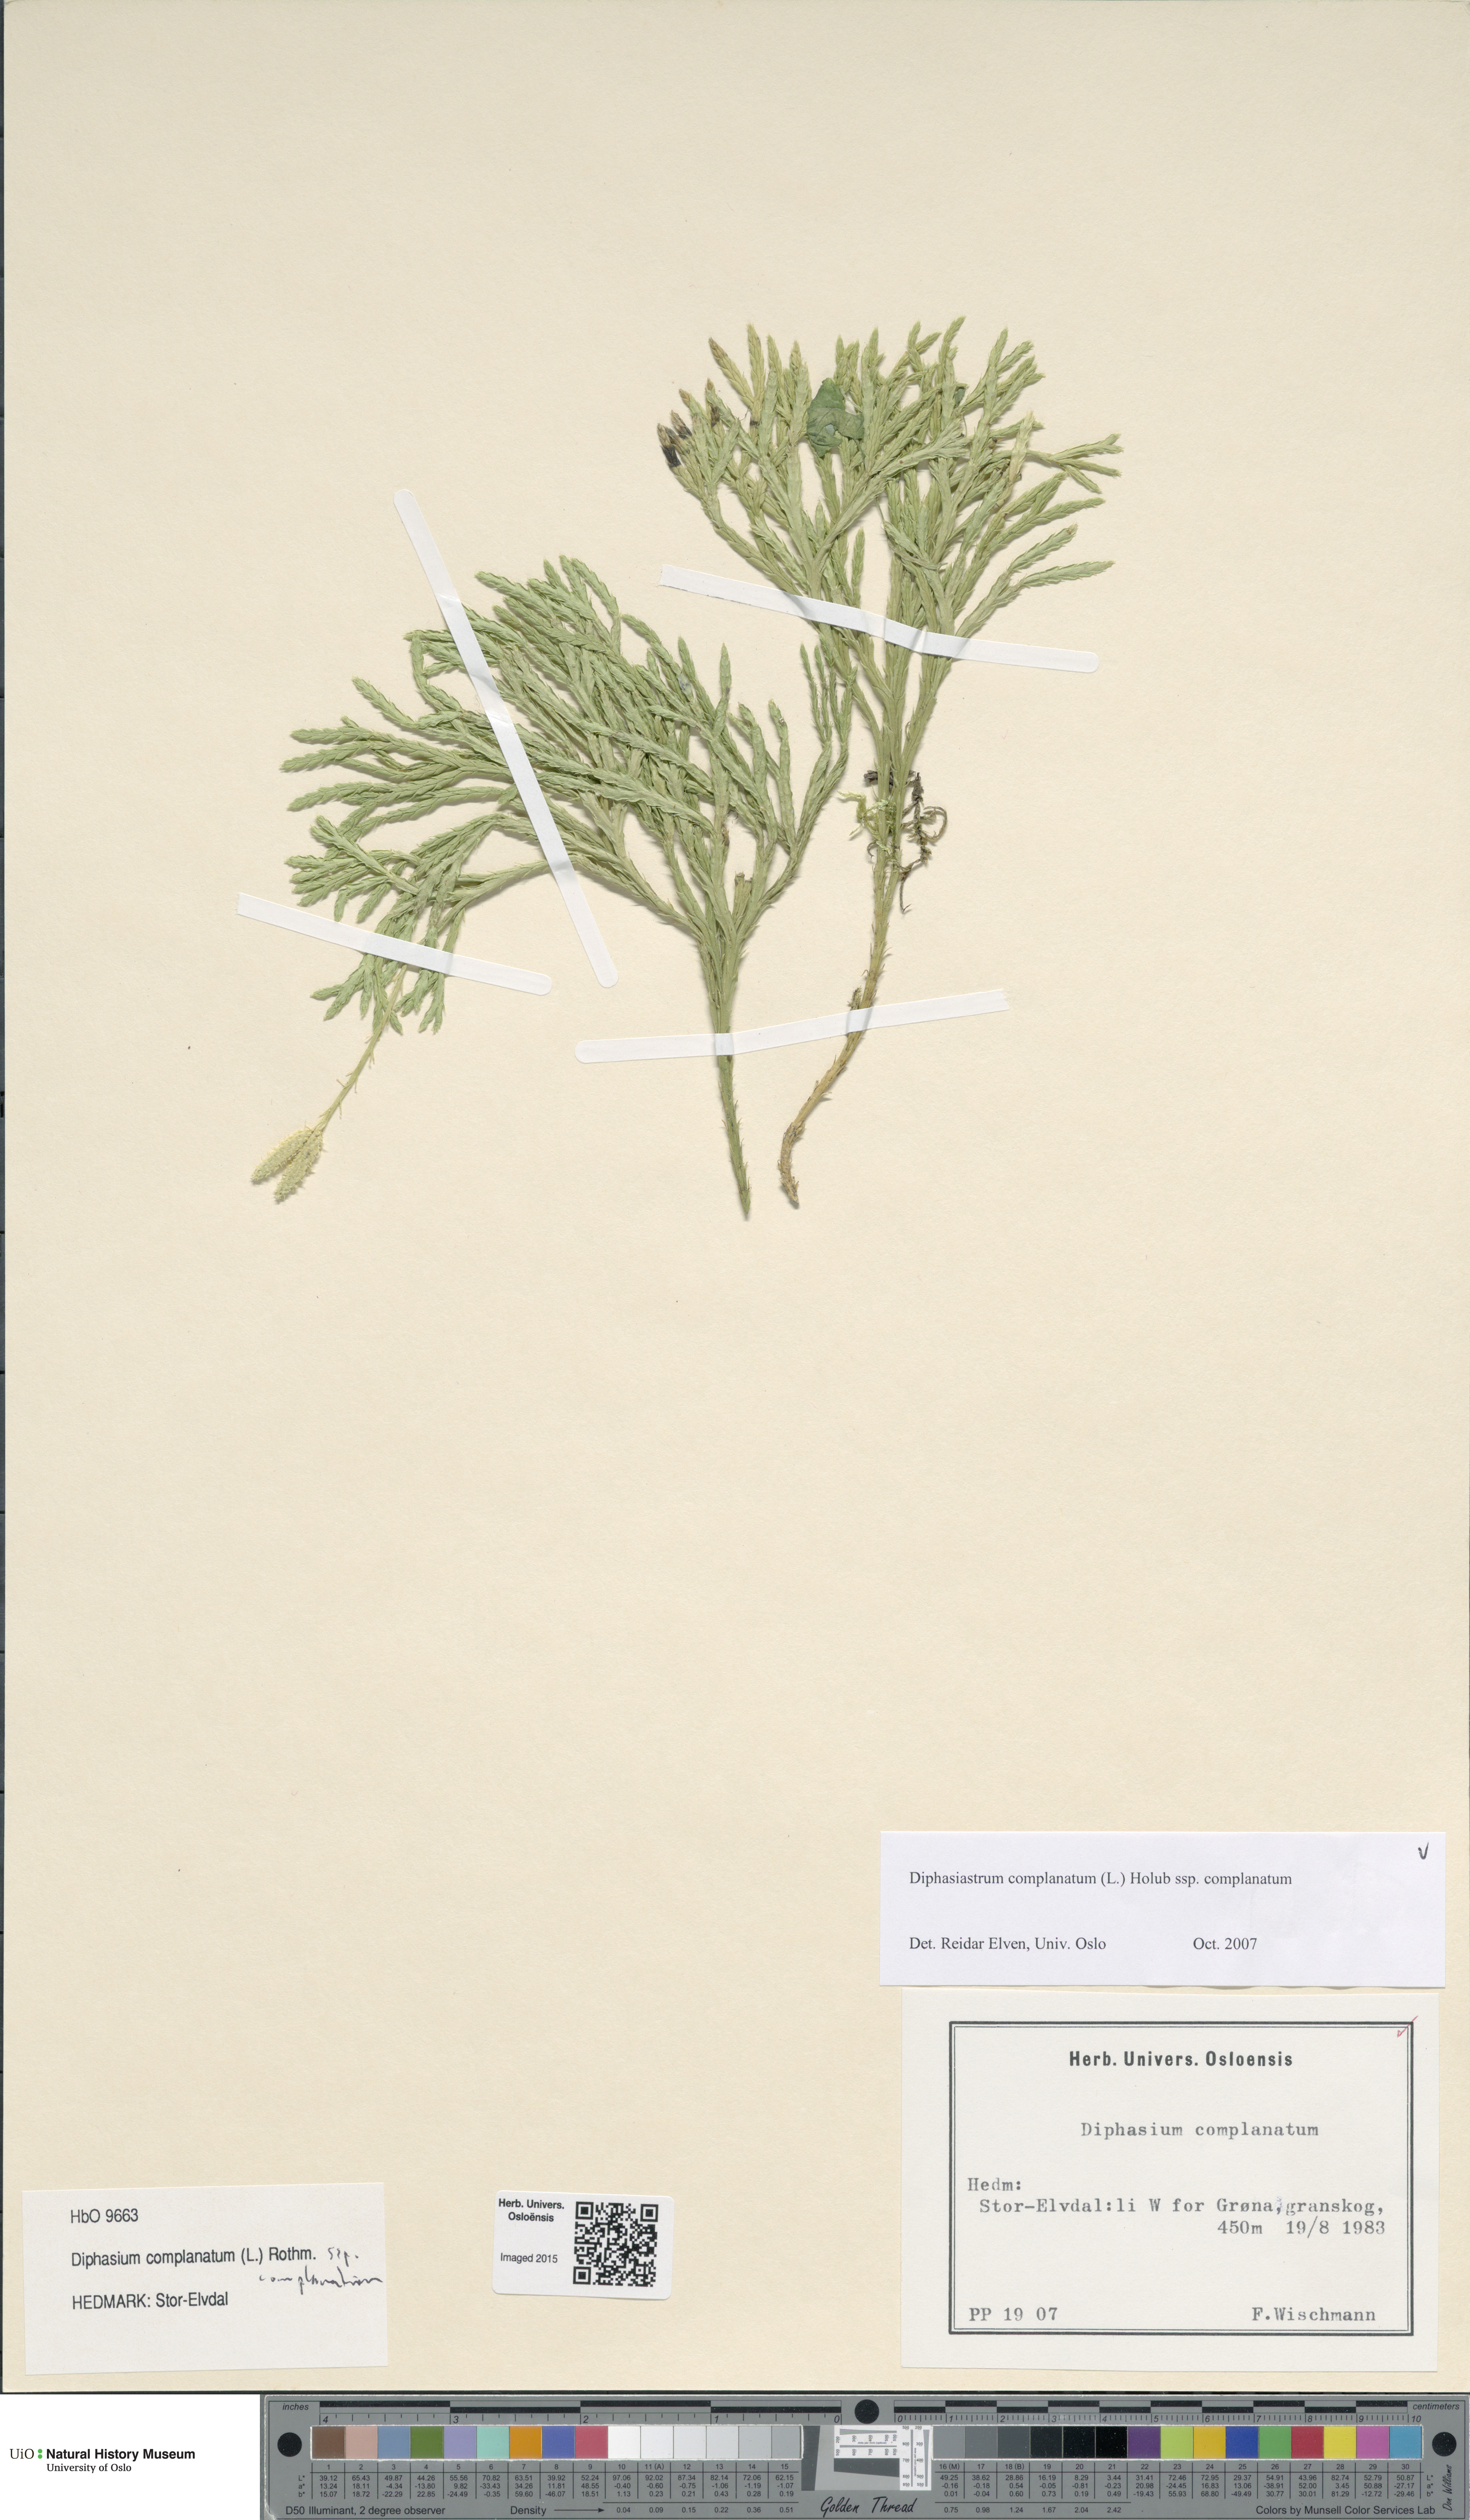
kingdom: Plantae
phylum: Tracheophyta
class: Lycopodiopsida
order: Lycopodiales
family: Lycopodiaceae
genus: Diphasiastrum
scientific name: Diphasiastrum complanatum
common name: Northern running-pine
